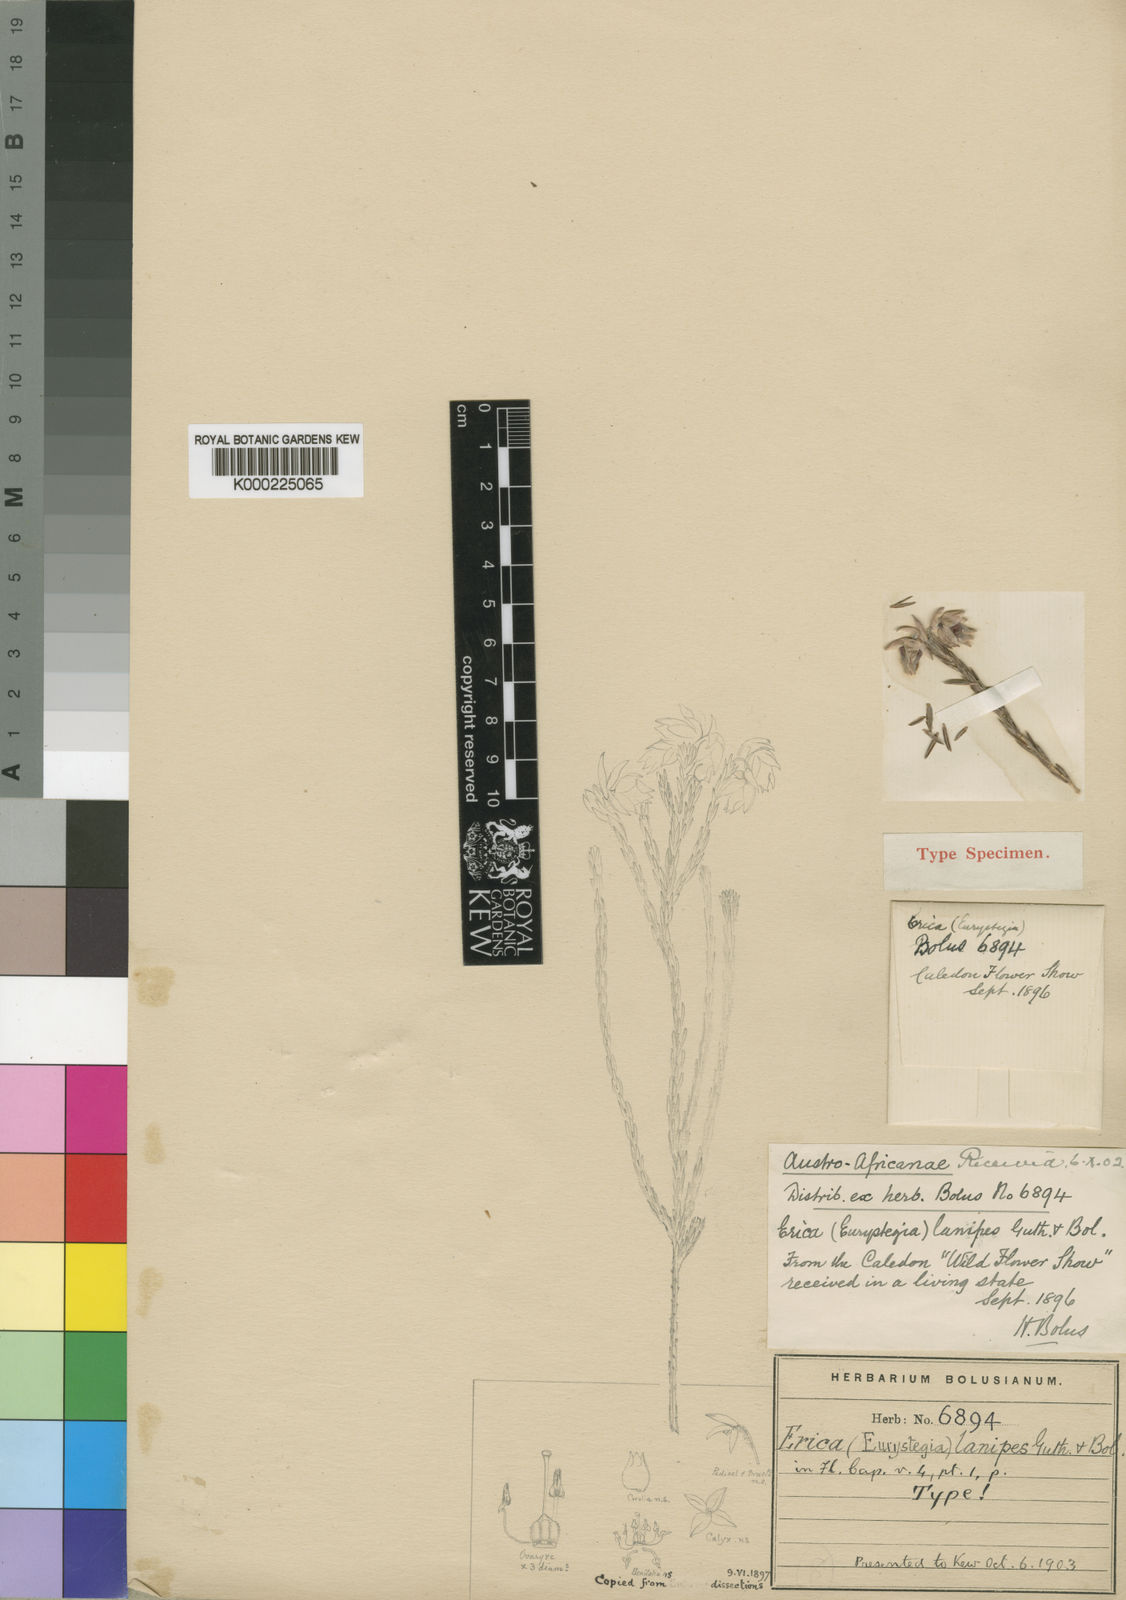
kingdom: Plantae
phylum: Tracheophyta
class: Magnoliopsida
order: Ericales
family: Ericaceae
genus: Erica
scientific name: Erica
